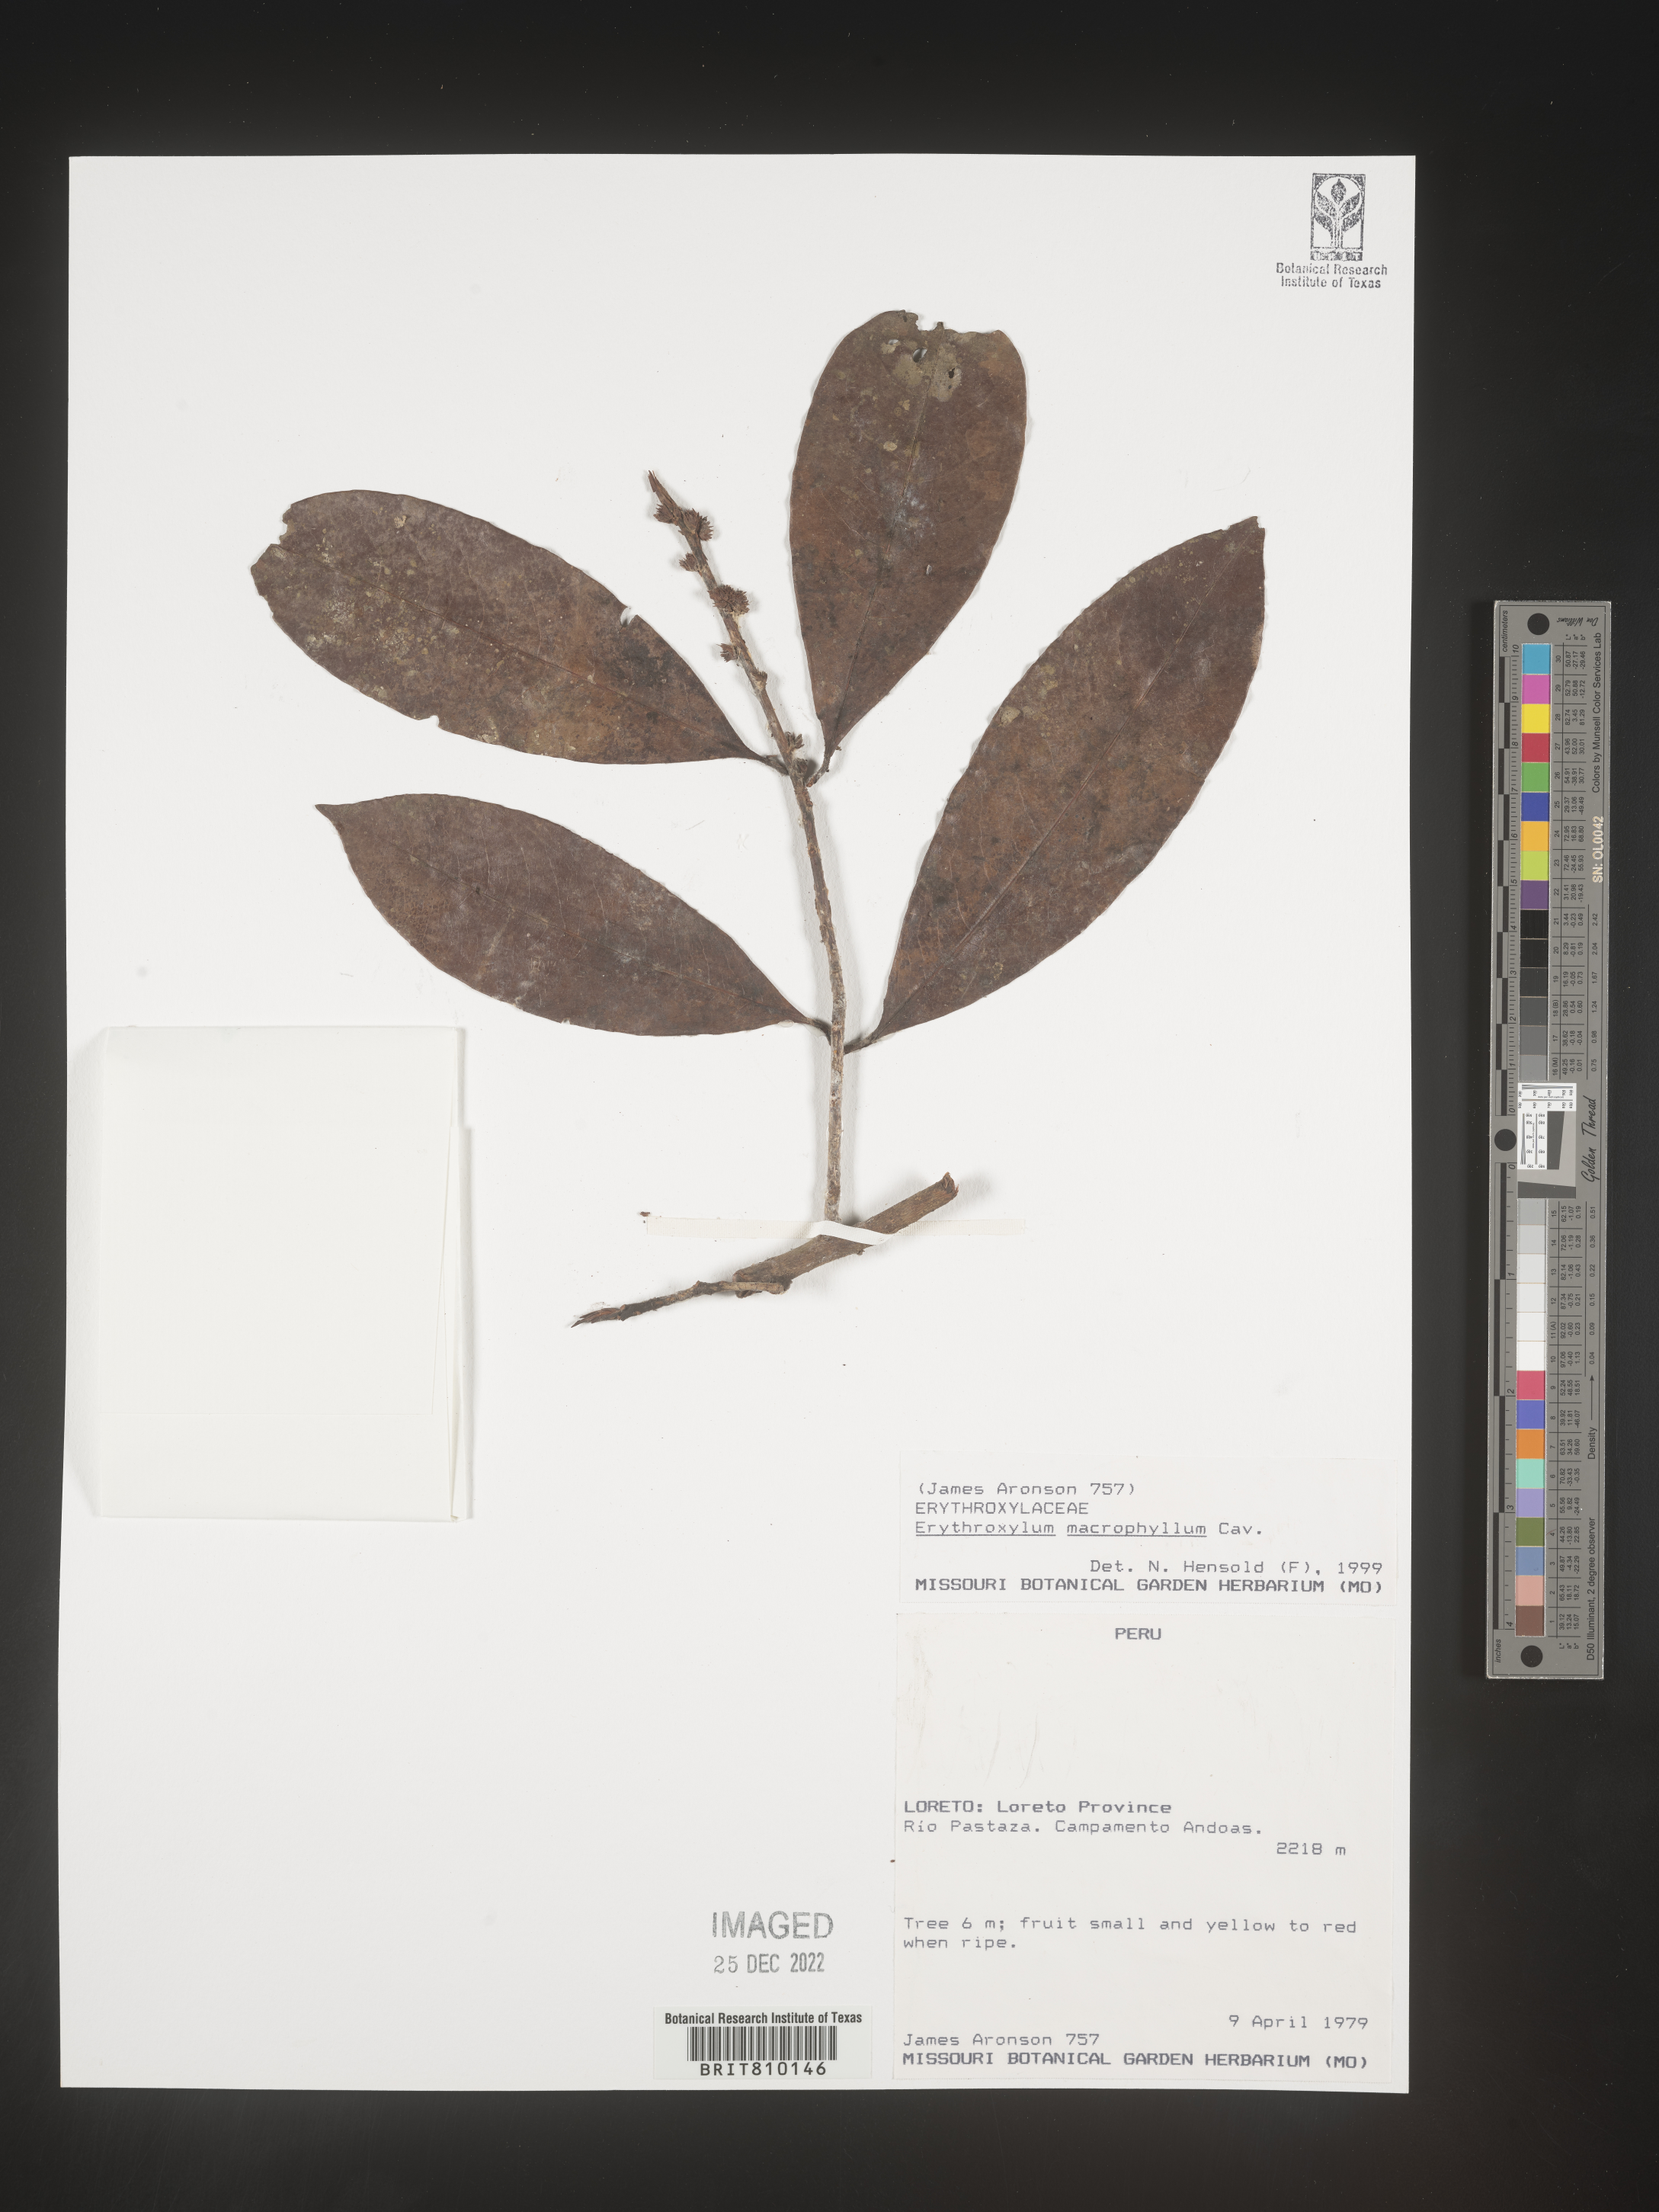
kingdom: Plantae
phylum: Tracheophyta
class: Magnoliopsida
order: Malpighiales
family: Erythroxylaceae
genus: Erythroxylum
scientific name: Erythroxylum
